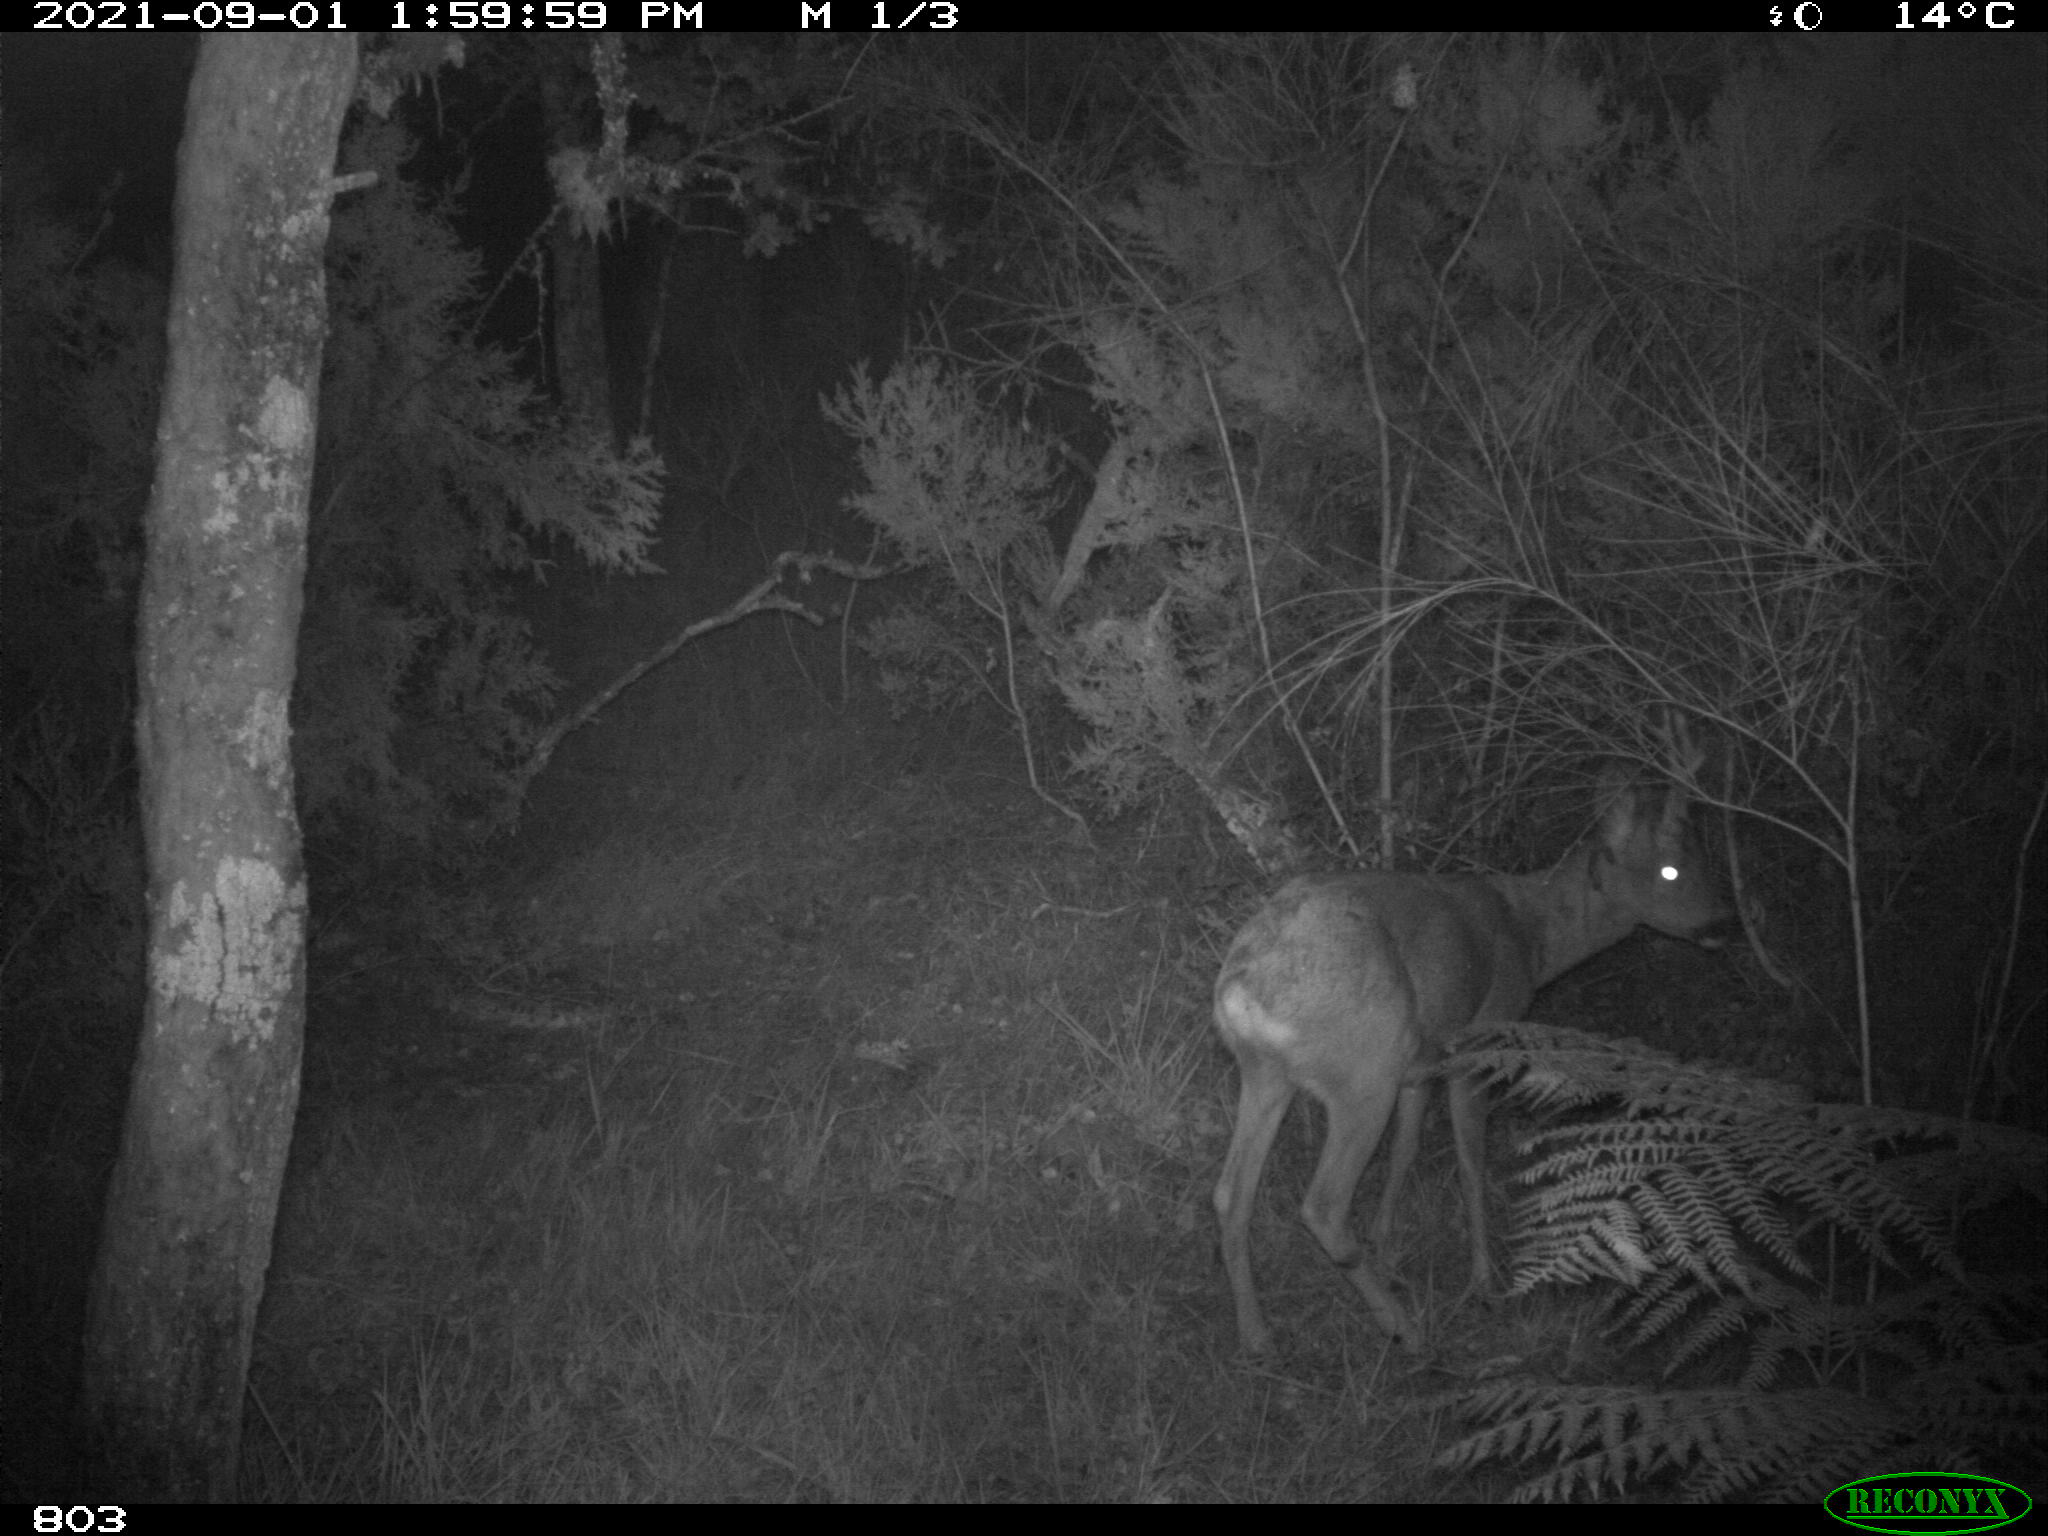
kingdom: Animalia
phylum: Chordata
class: Mammalia
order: Artiodactyla
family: Cervidae
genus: Capreolus
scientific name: Capreolus capreolus
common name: Western roe deer
